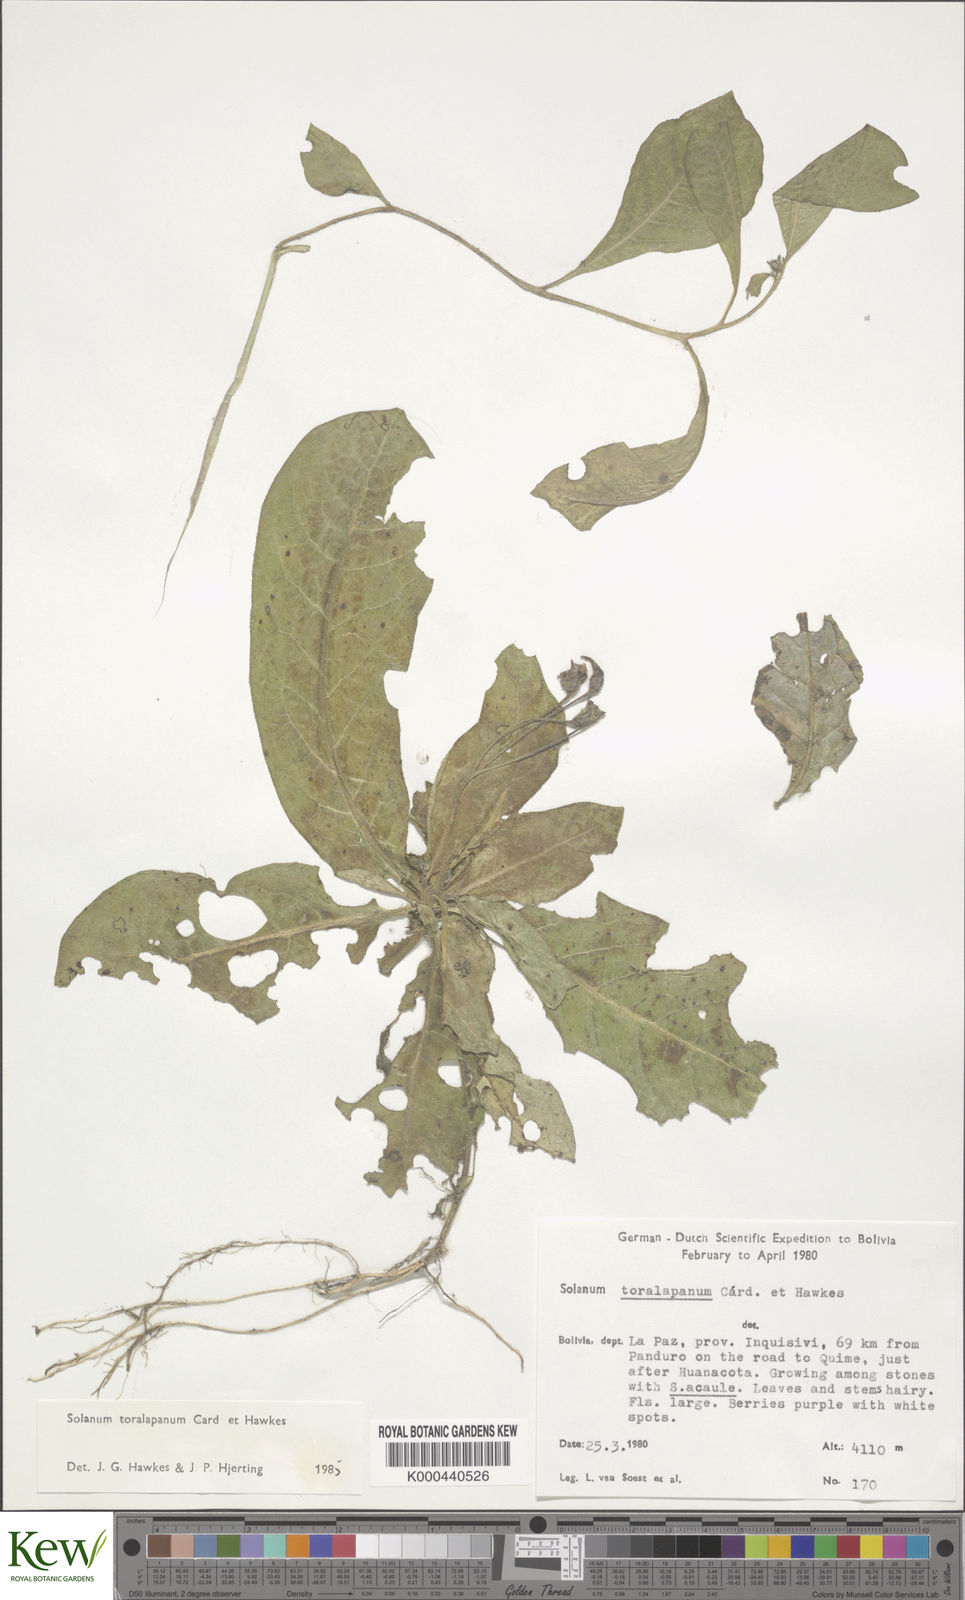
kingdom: Plantae
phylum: Tracheophyta
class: Magnoliopsida
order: Solanales
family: Solanaceae
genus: Solanum
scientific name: Solanum boliviense
